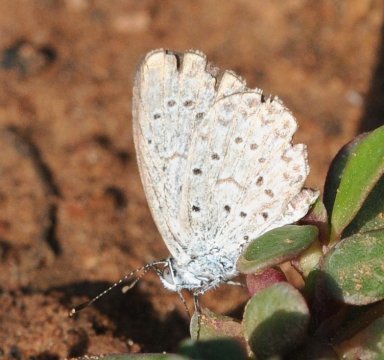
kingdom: Animalia
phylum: Arthropoda
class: Insecta
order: Lepidoptera
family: Lycaenidae
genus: Zizeeria
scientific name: Zizeeria knysna
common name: Dark Grass Blue
